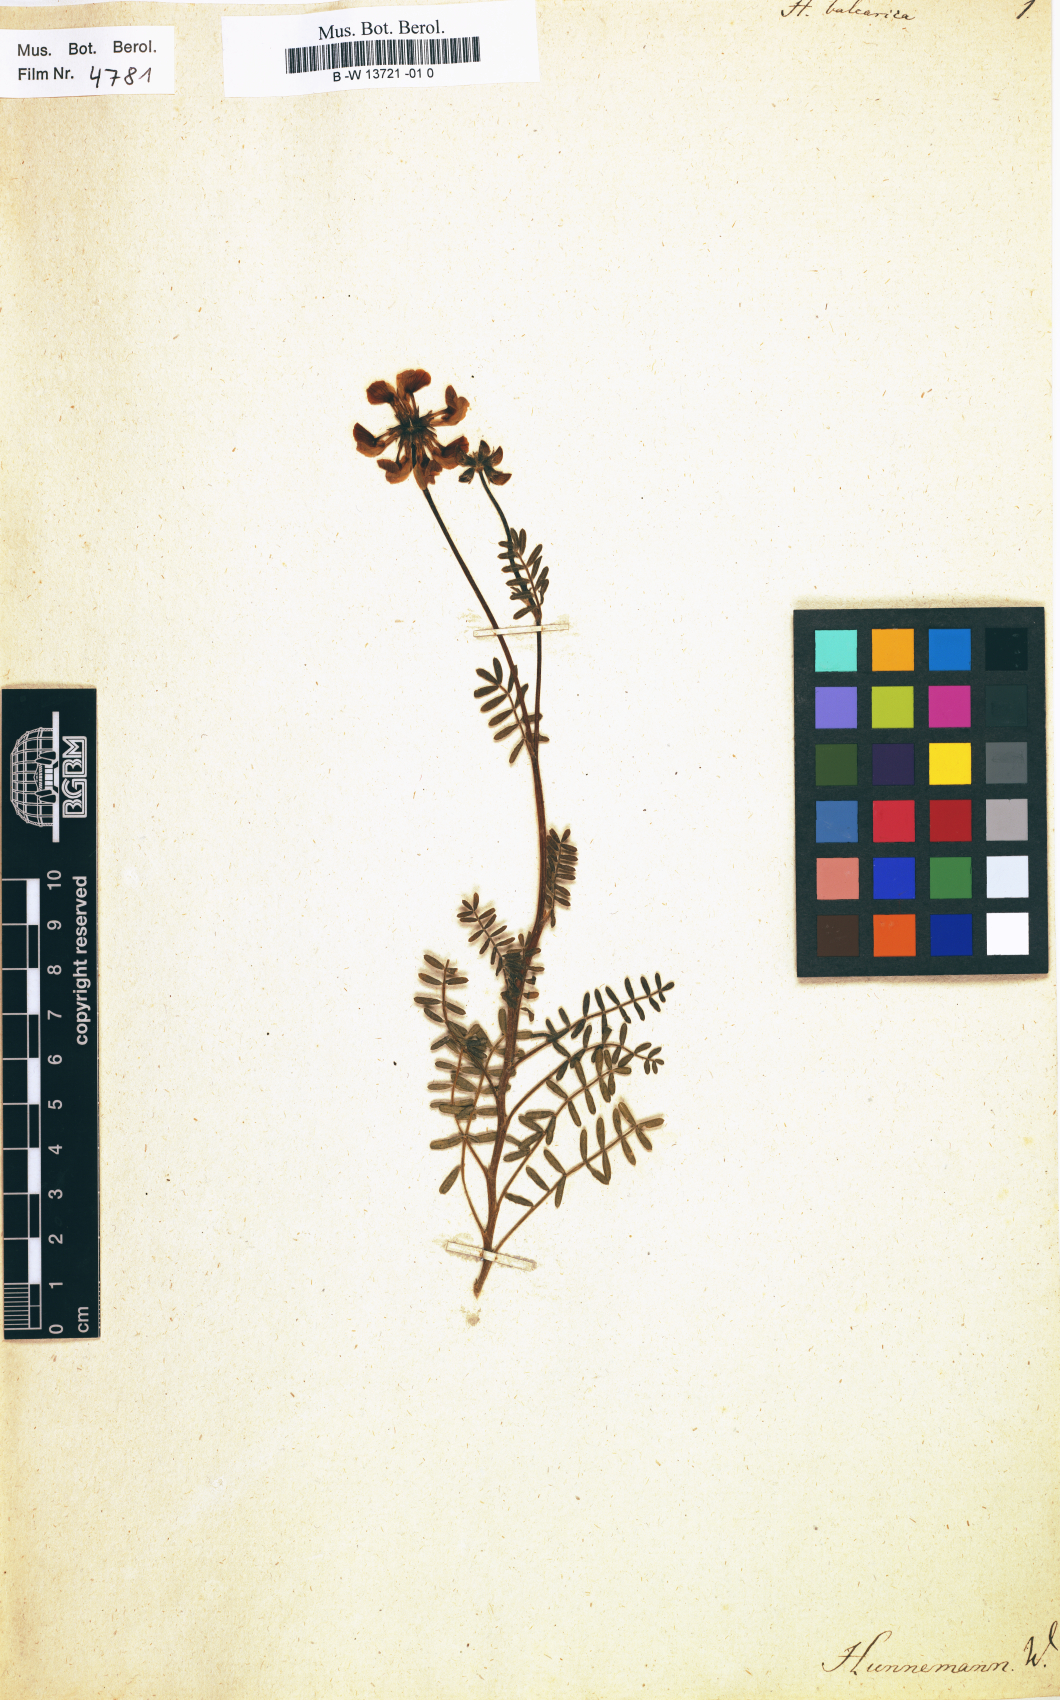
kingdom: Plantae
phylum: Tracheophyta
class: Magnoliopsida
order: Fabales
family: Fabaceae
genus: Hippocrepis
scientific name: Hippocrepis balearica
